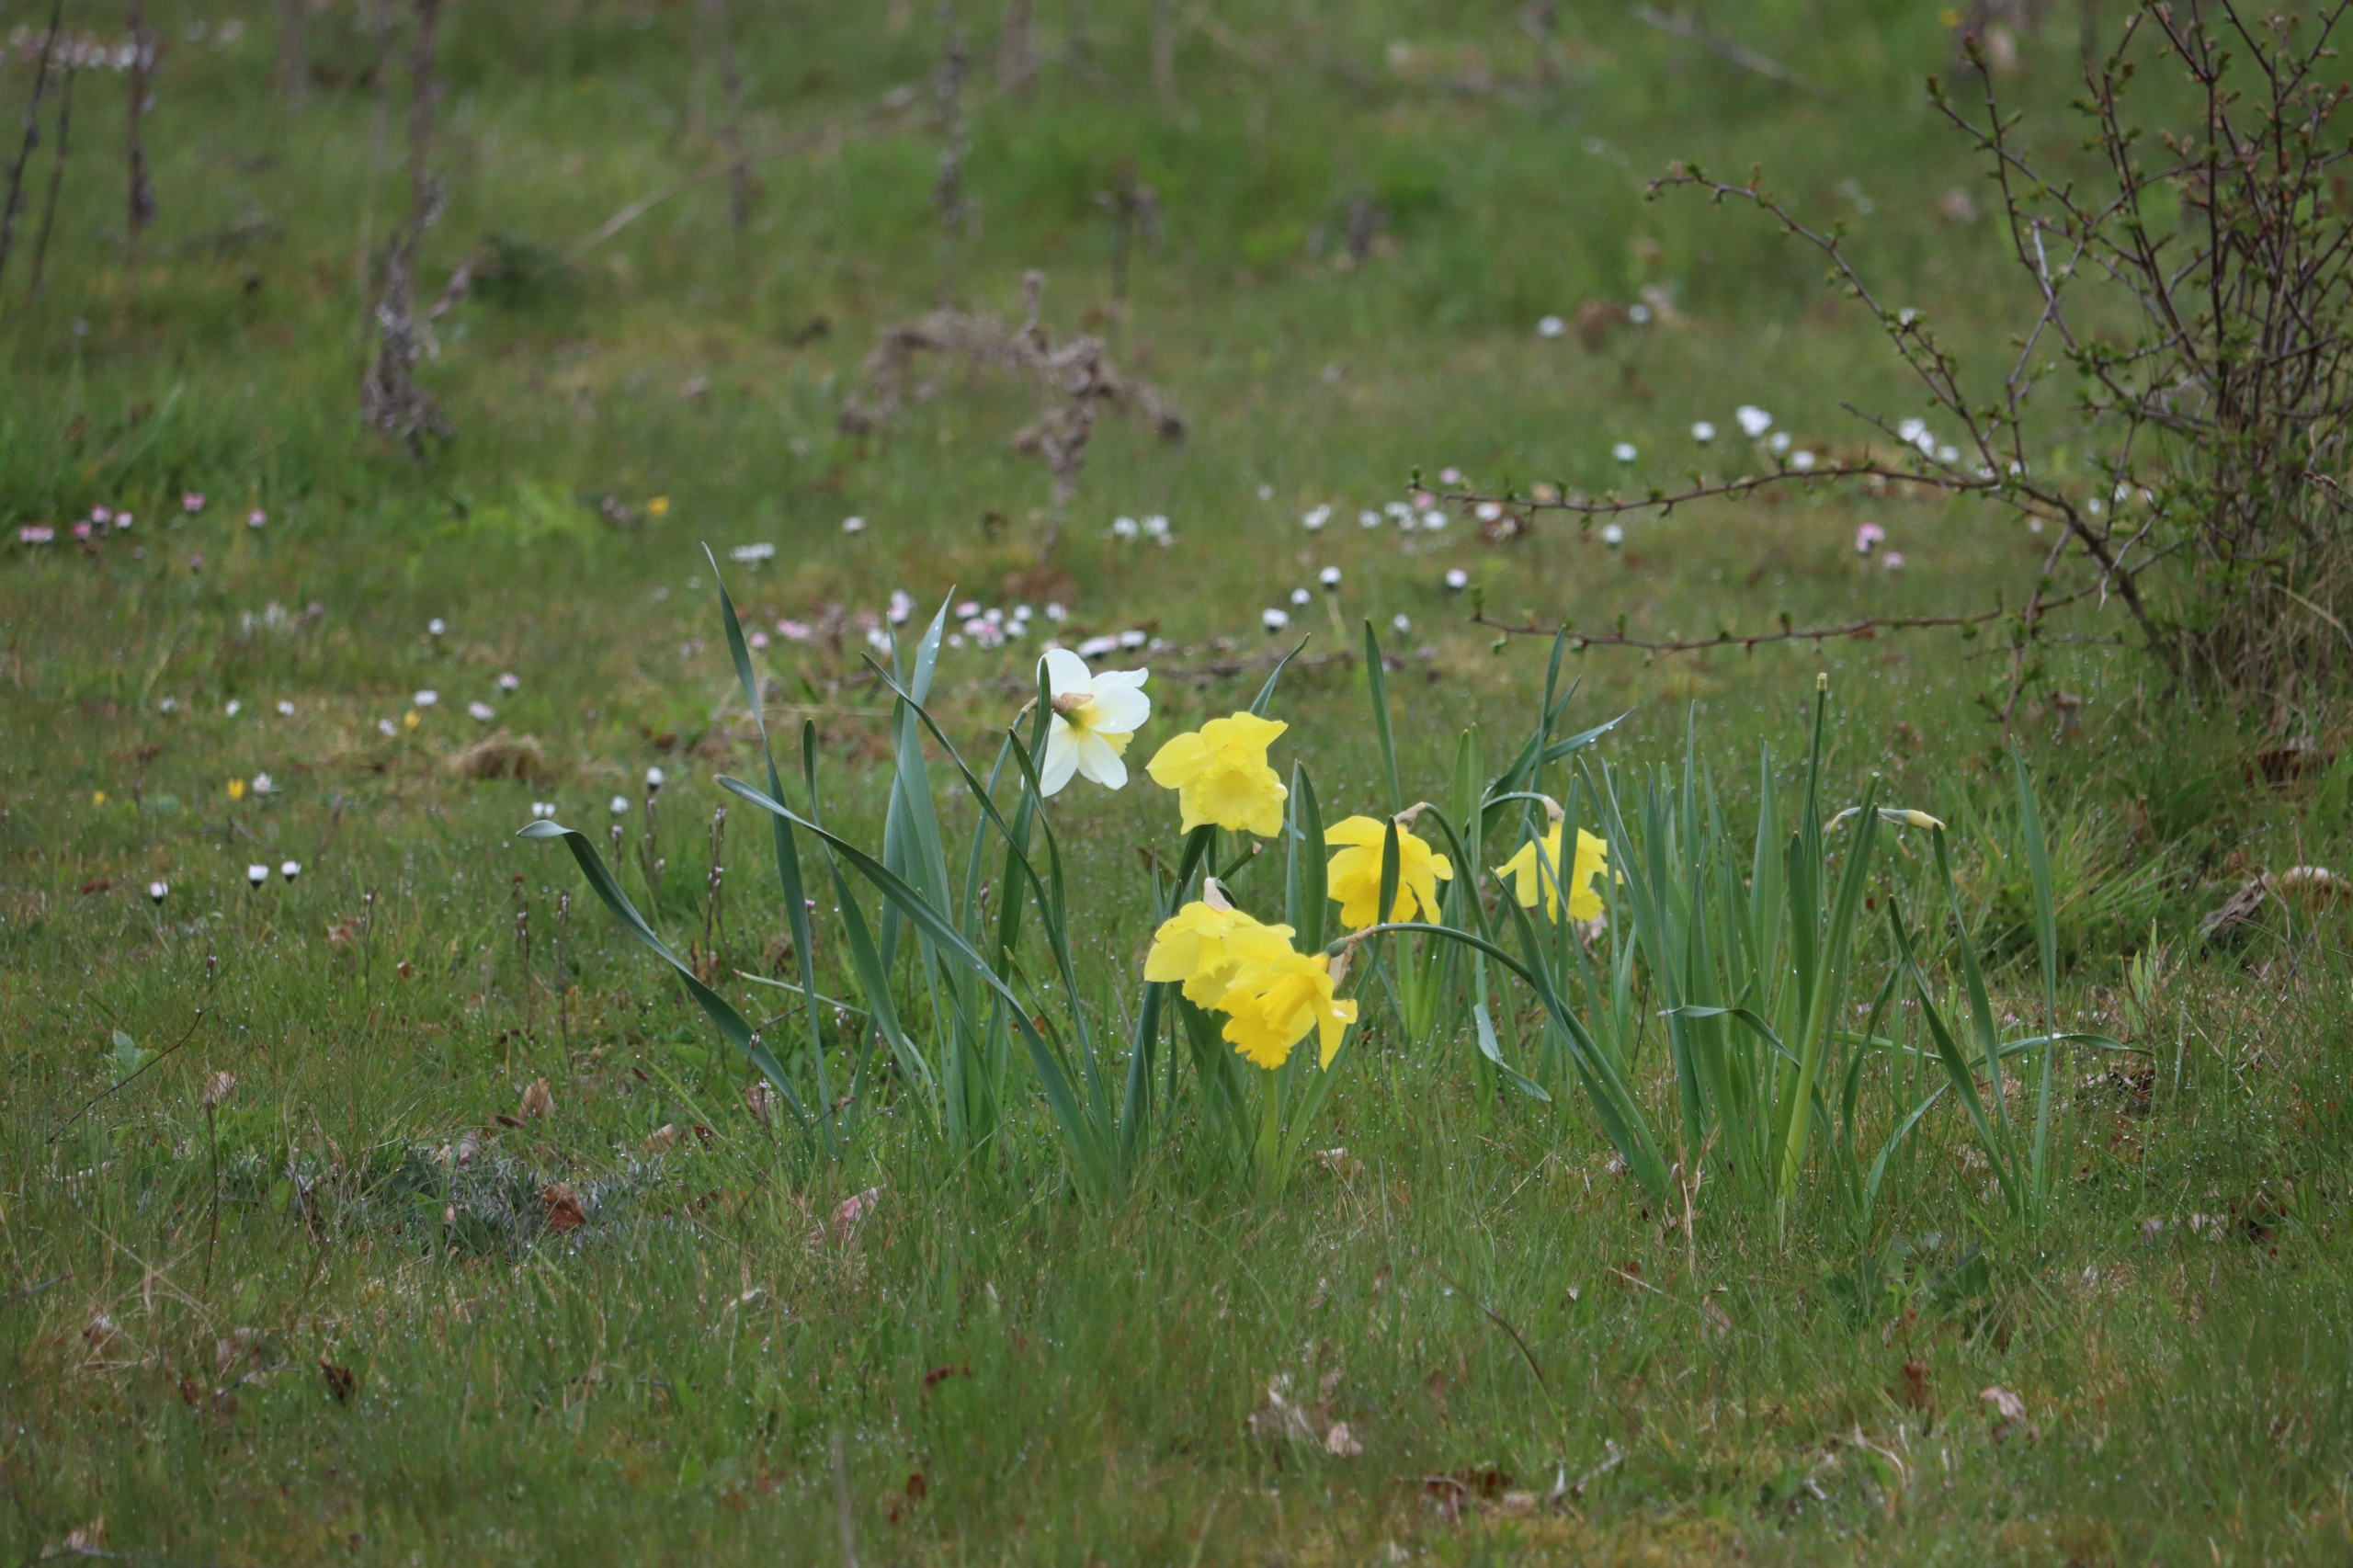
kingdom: Plantae
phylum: Tracheophyta
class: Liliopsida
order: Asparagales
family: Amaryllidaceae
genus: Narcissus
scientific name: Narcissus pseudonarcissus
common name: Påskelilje
